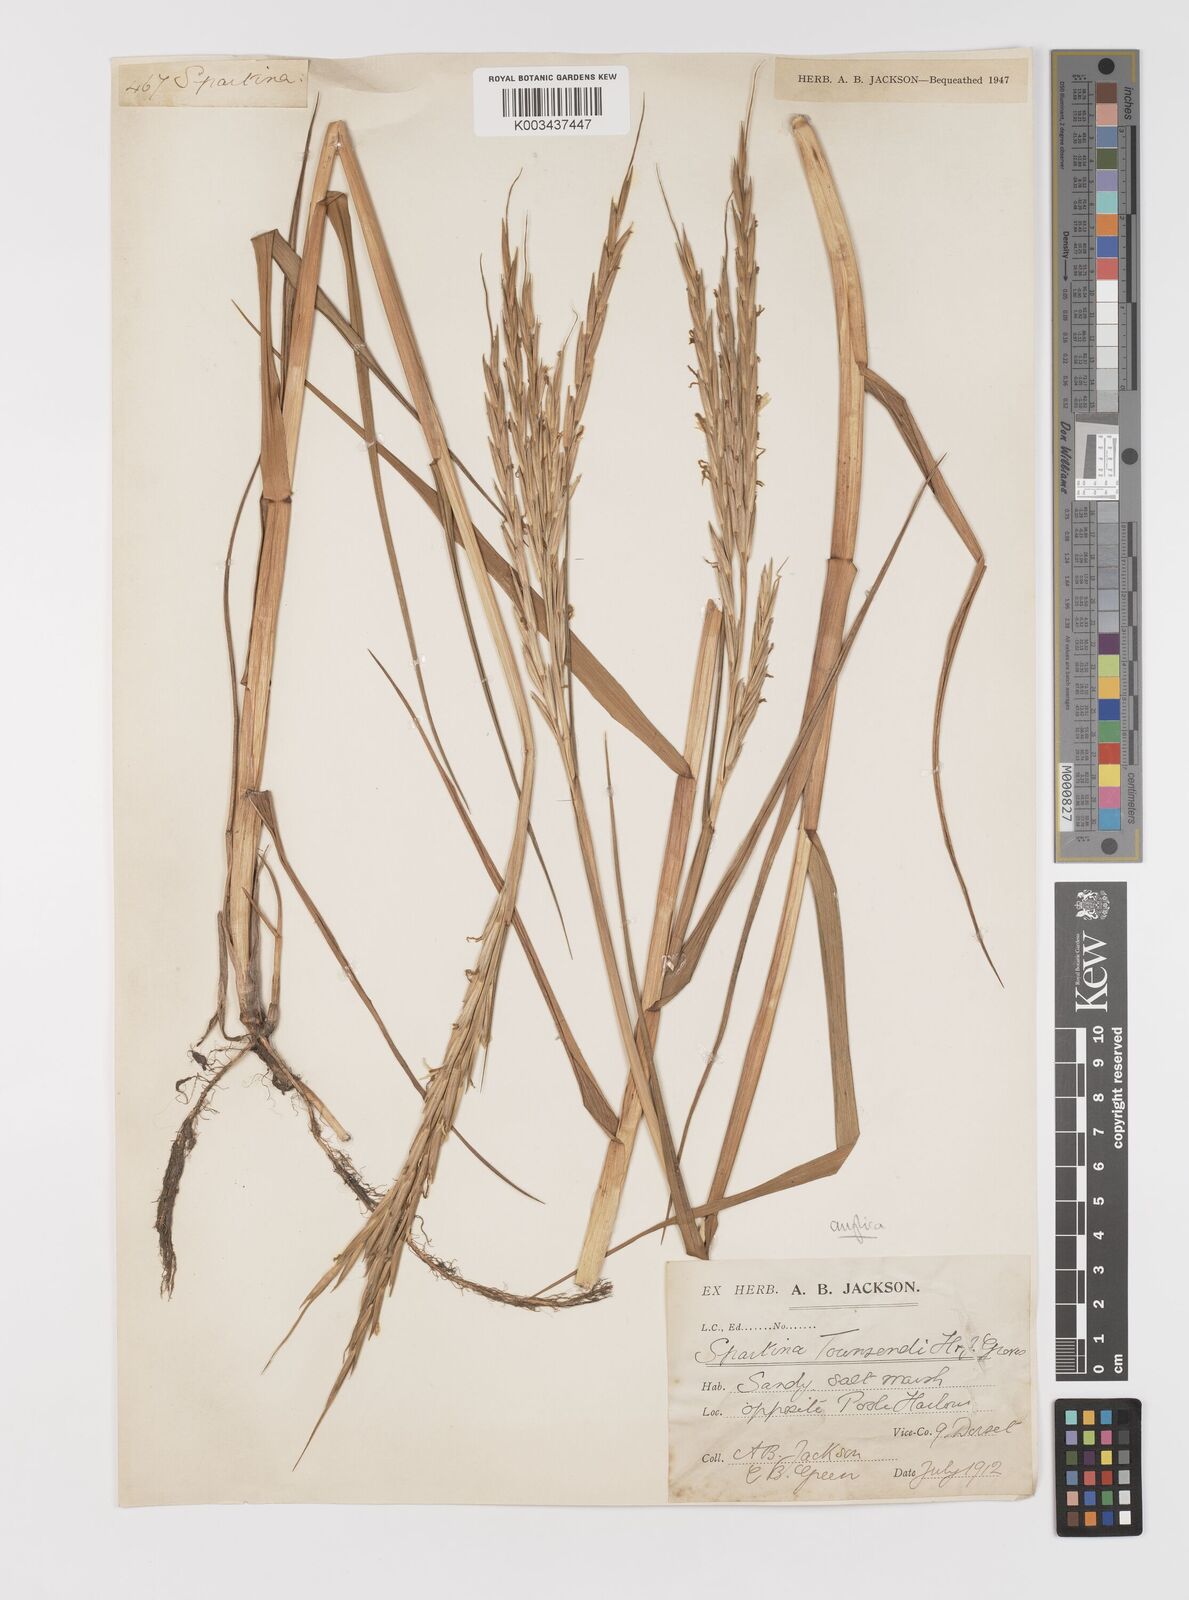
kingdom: Plantae
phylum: Tracheophyta
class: Liliopsida
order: Poales
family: Poaceae
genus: Sporobolus
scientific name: Sporobolus anglicus
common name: English cordgrass
